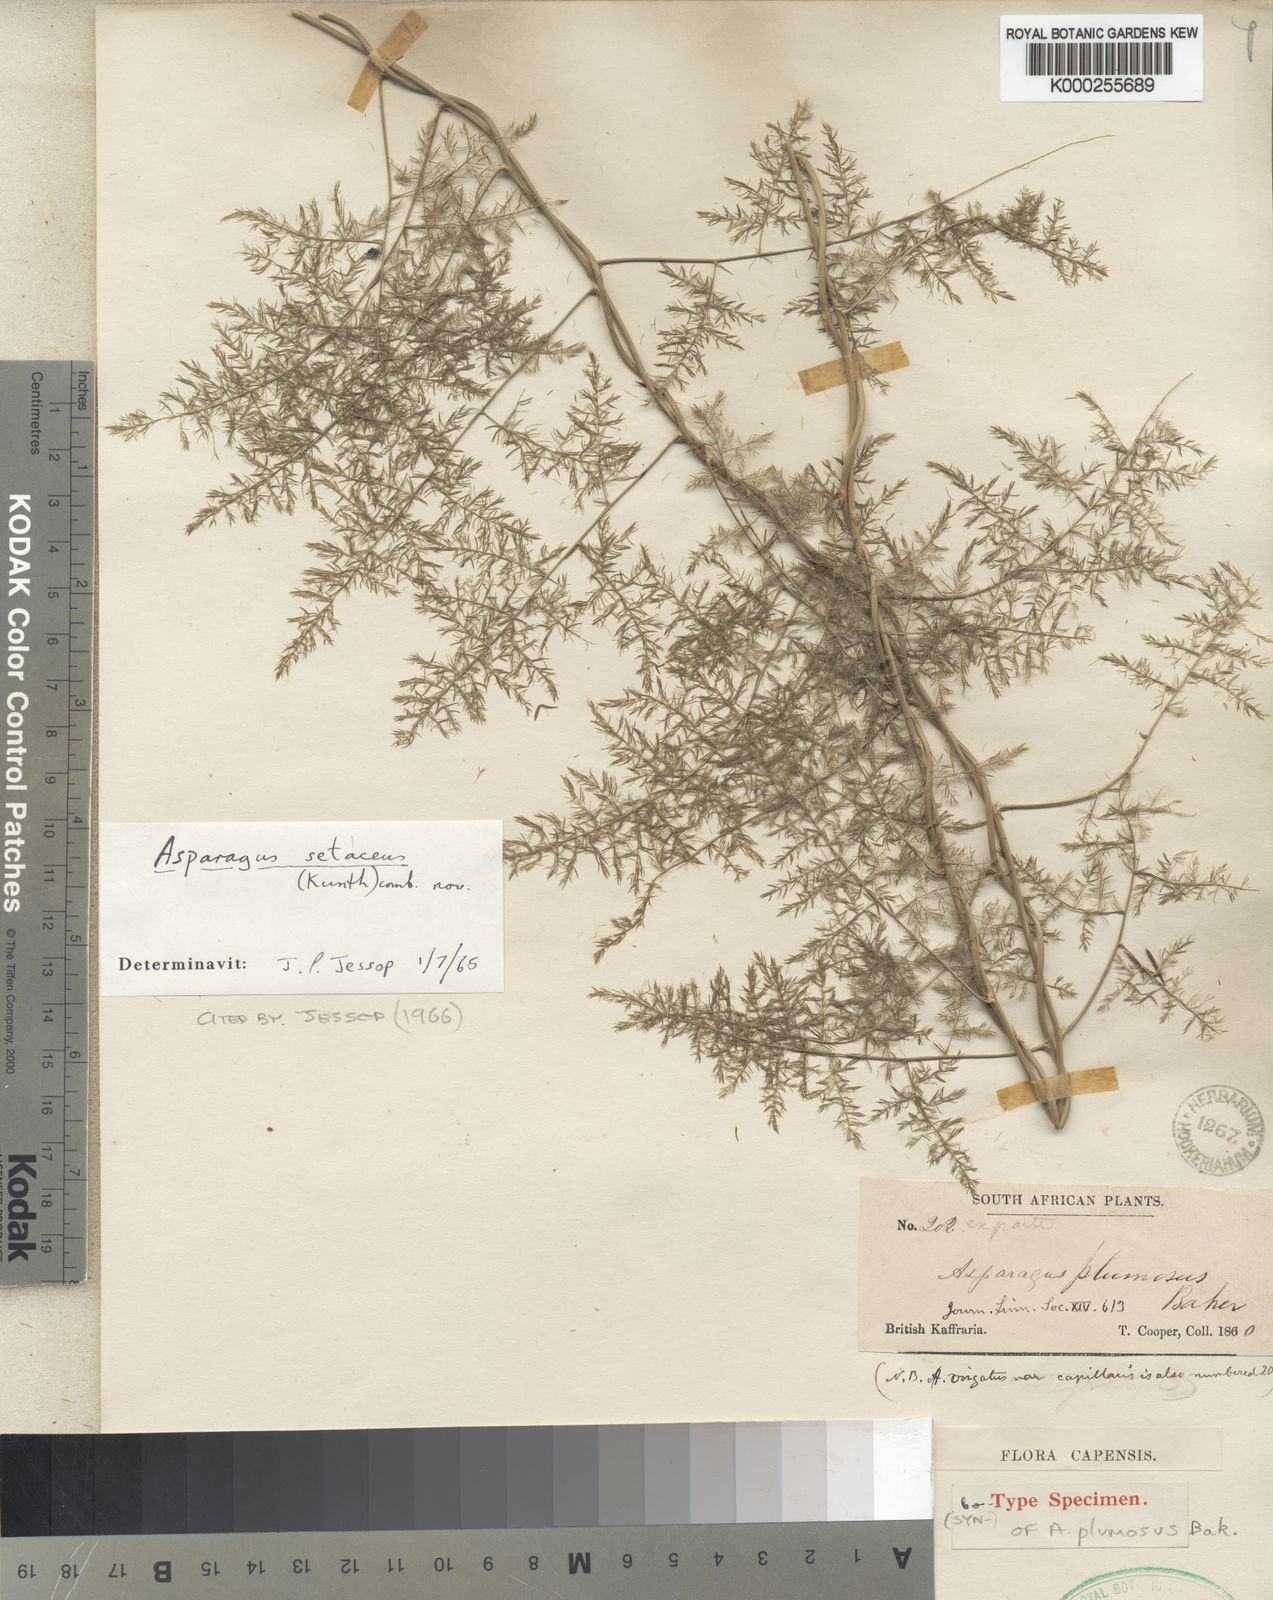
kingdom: Plantae
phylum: Tracheophyta
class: Liliopsida
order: Asparagales
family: Asparagaceae
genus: Asparagus
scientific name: Asparagus setaceus
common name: Common asparagus fern
